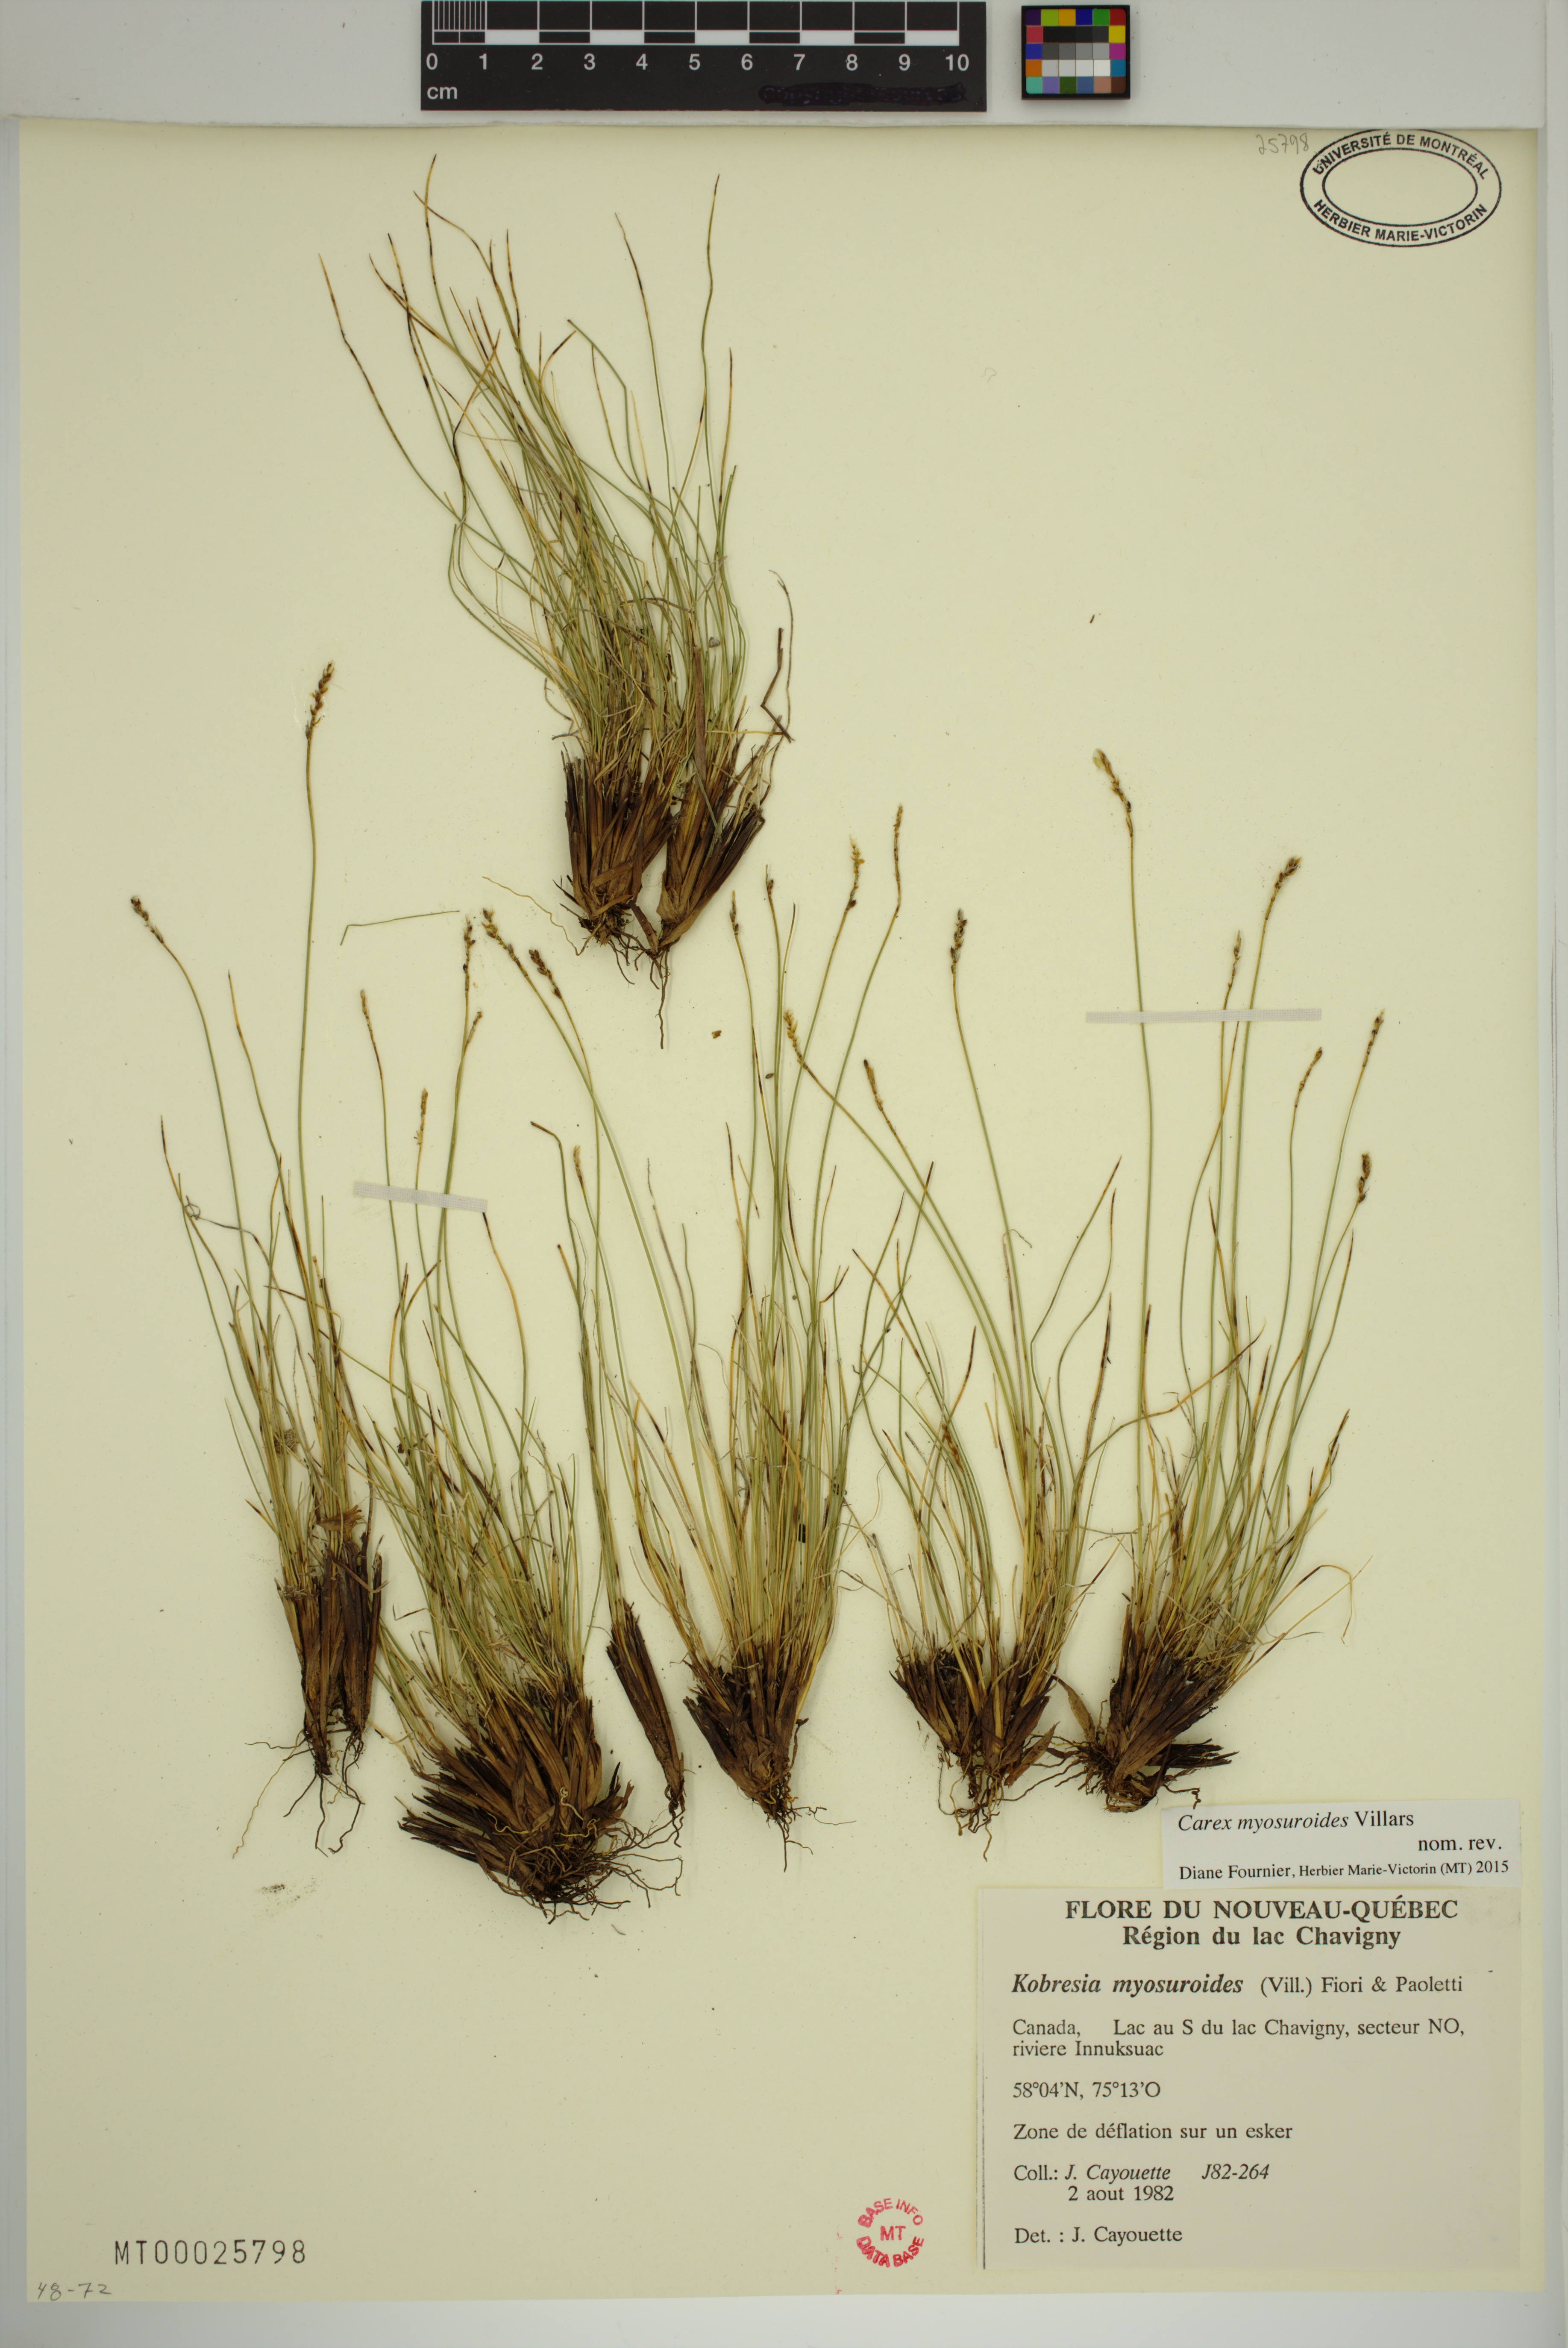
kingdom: Plantae
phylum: Tracheophyta
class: Liliopsida
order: Poales
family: Cyperaceae
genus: Carex
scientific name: Carex myosuroides
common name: Bellard's bog sedge
